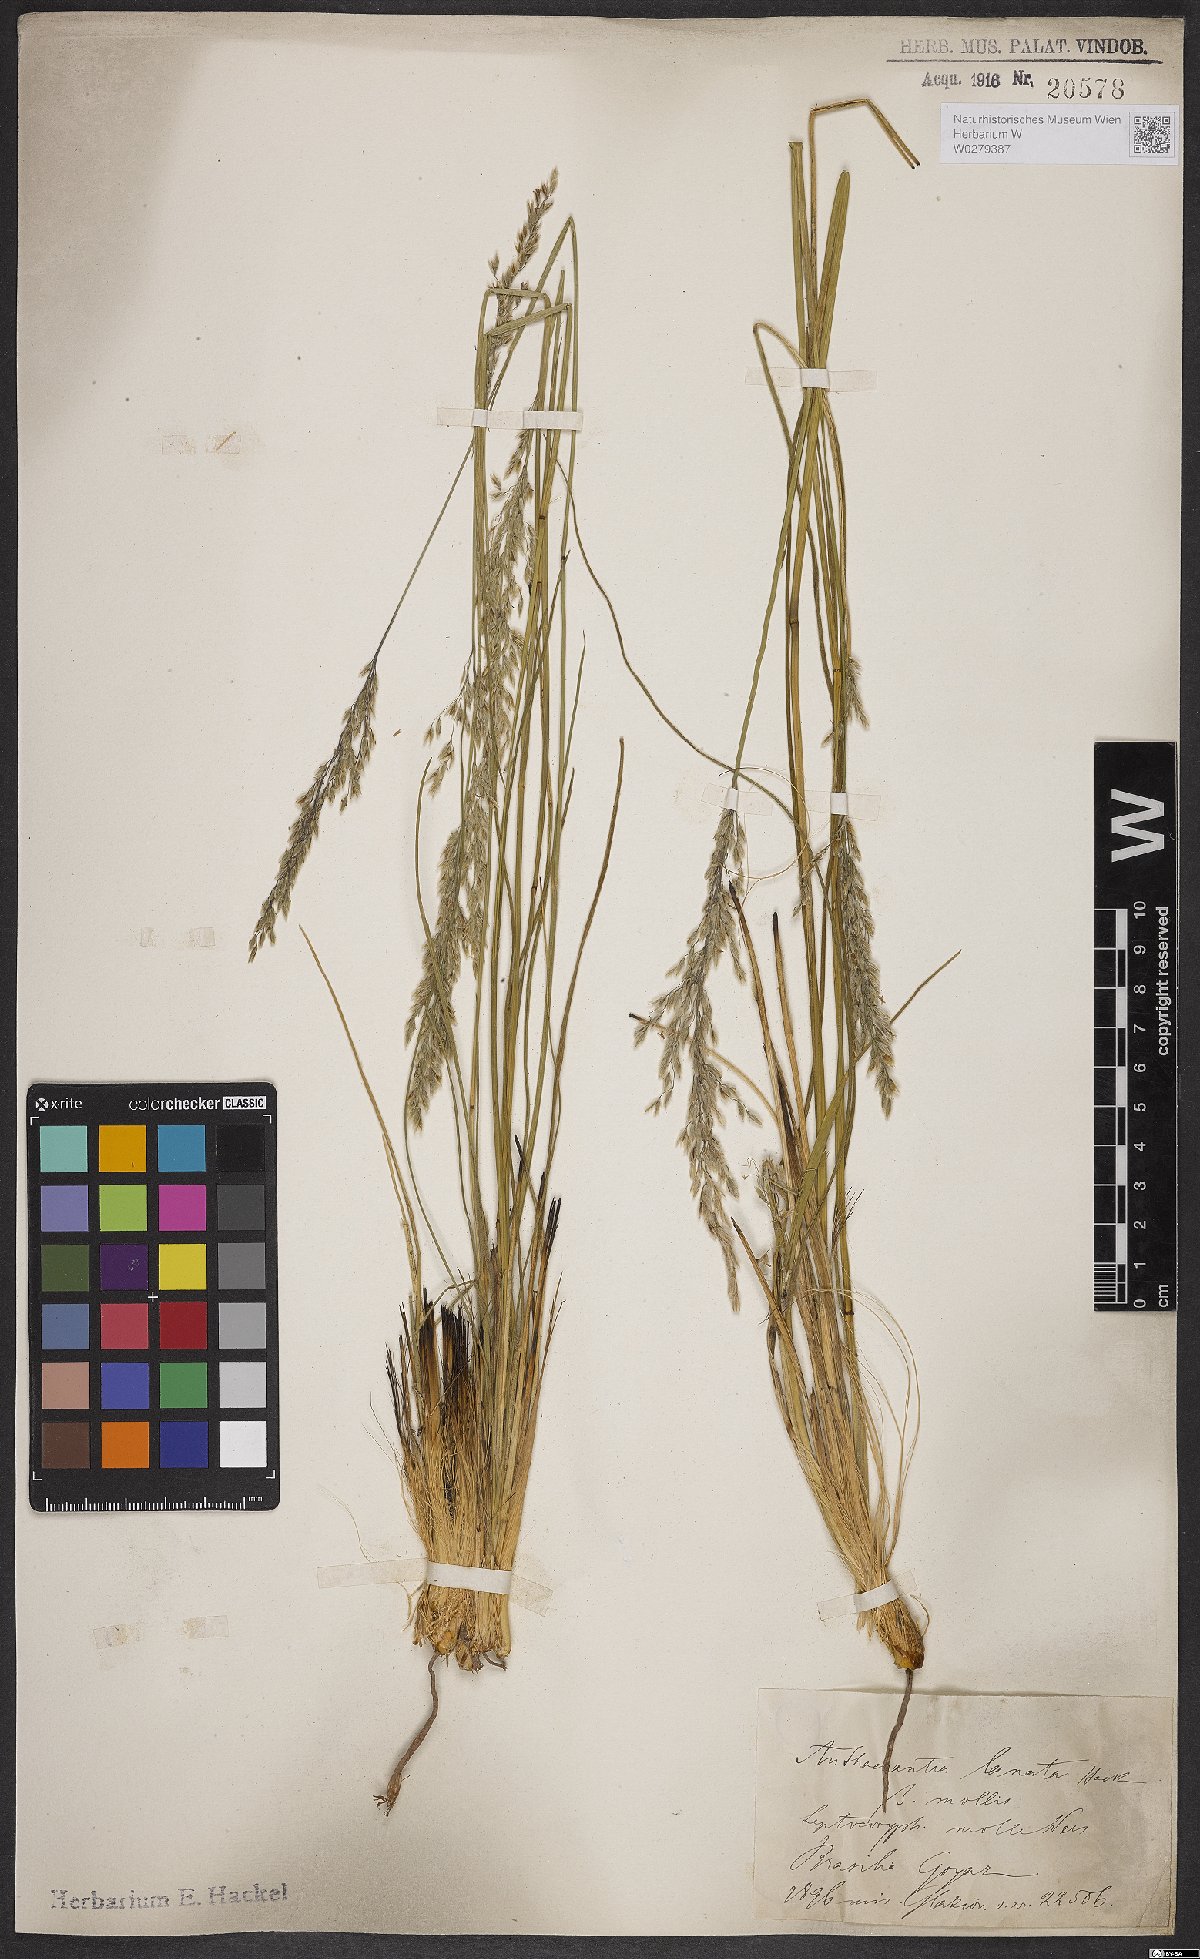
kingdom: Plantae
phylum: Tracheophyta
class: Liliopsida
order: Poales
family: Poaceae
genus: Anthaenantia
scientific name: Anthaenantia lanata
